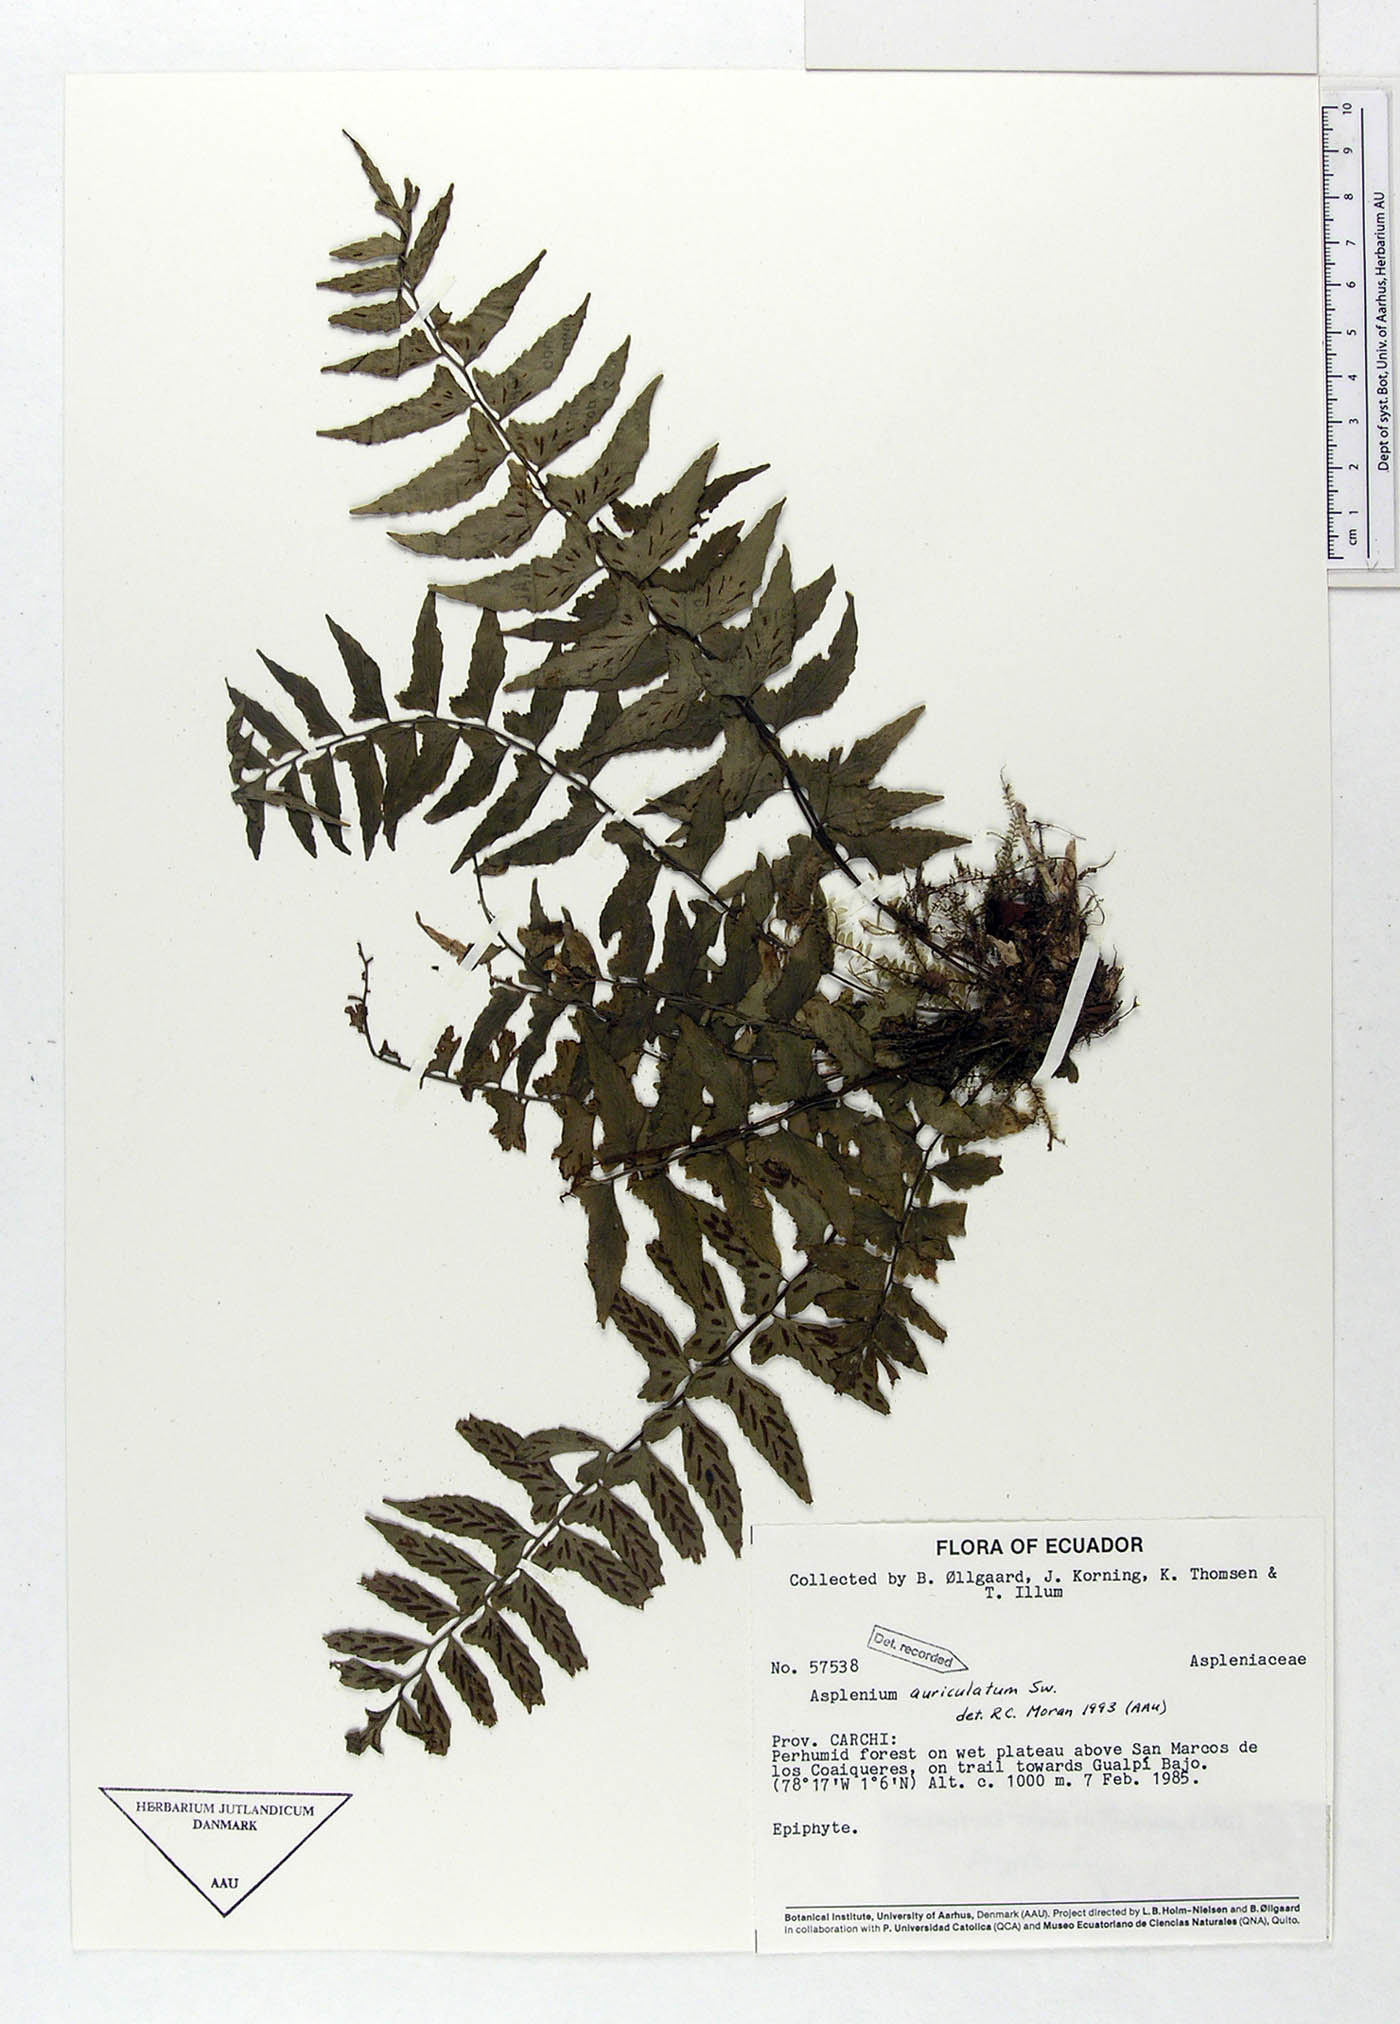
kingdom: Plantae
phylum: Tracheophyta
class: Polypodiopsida
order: Polypodiales
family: Aspleniaceae
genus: Asplenium
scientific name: Asplenium auriculatum
